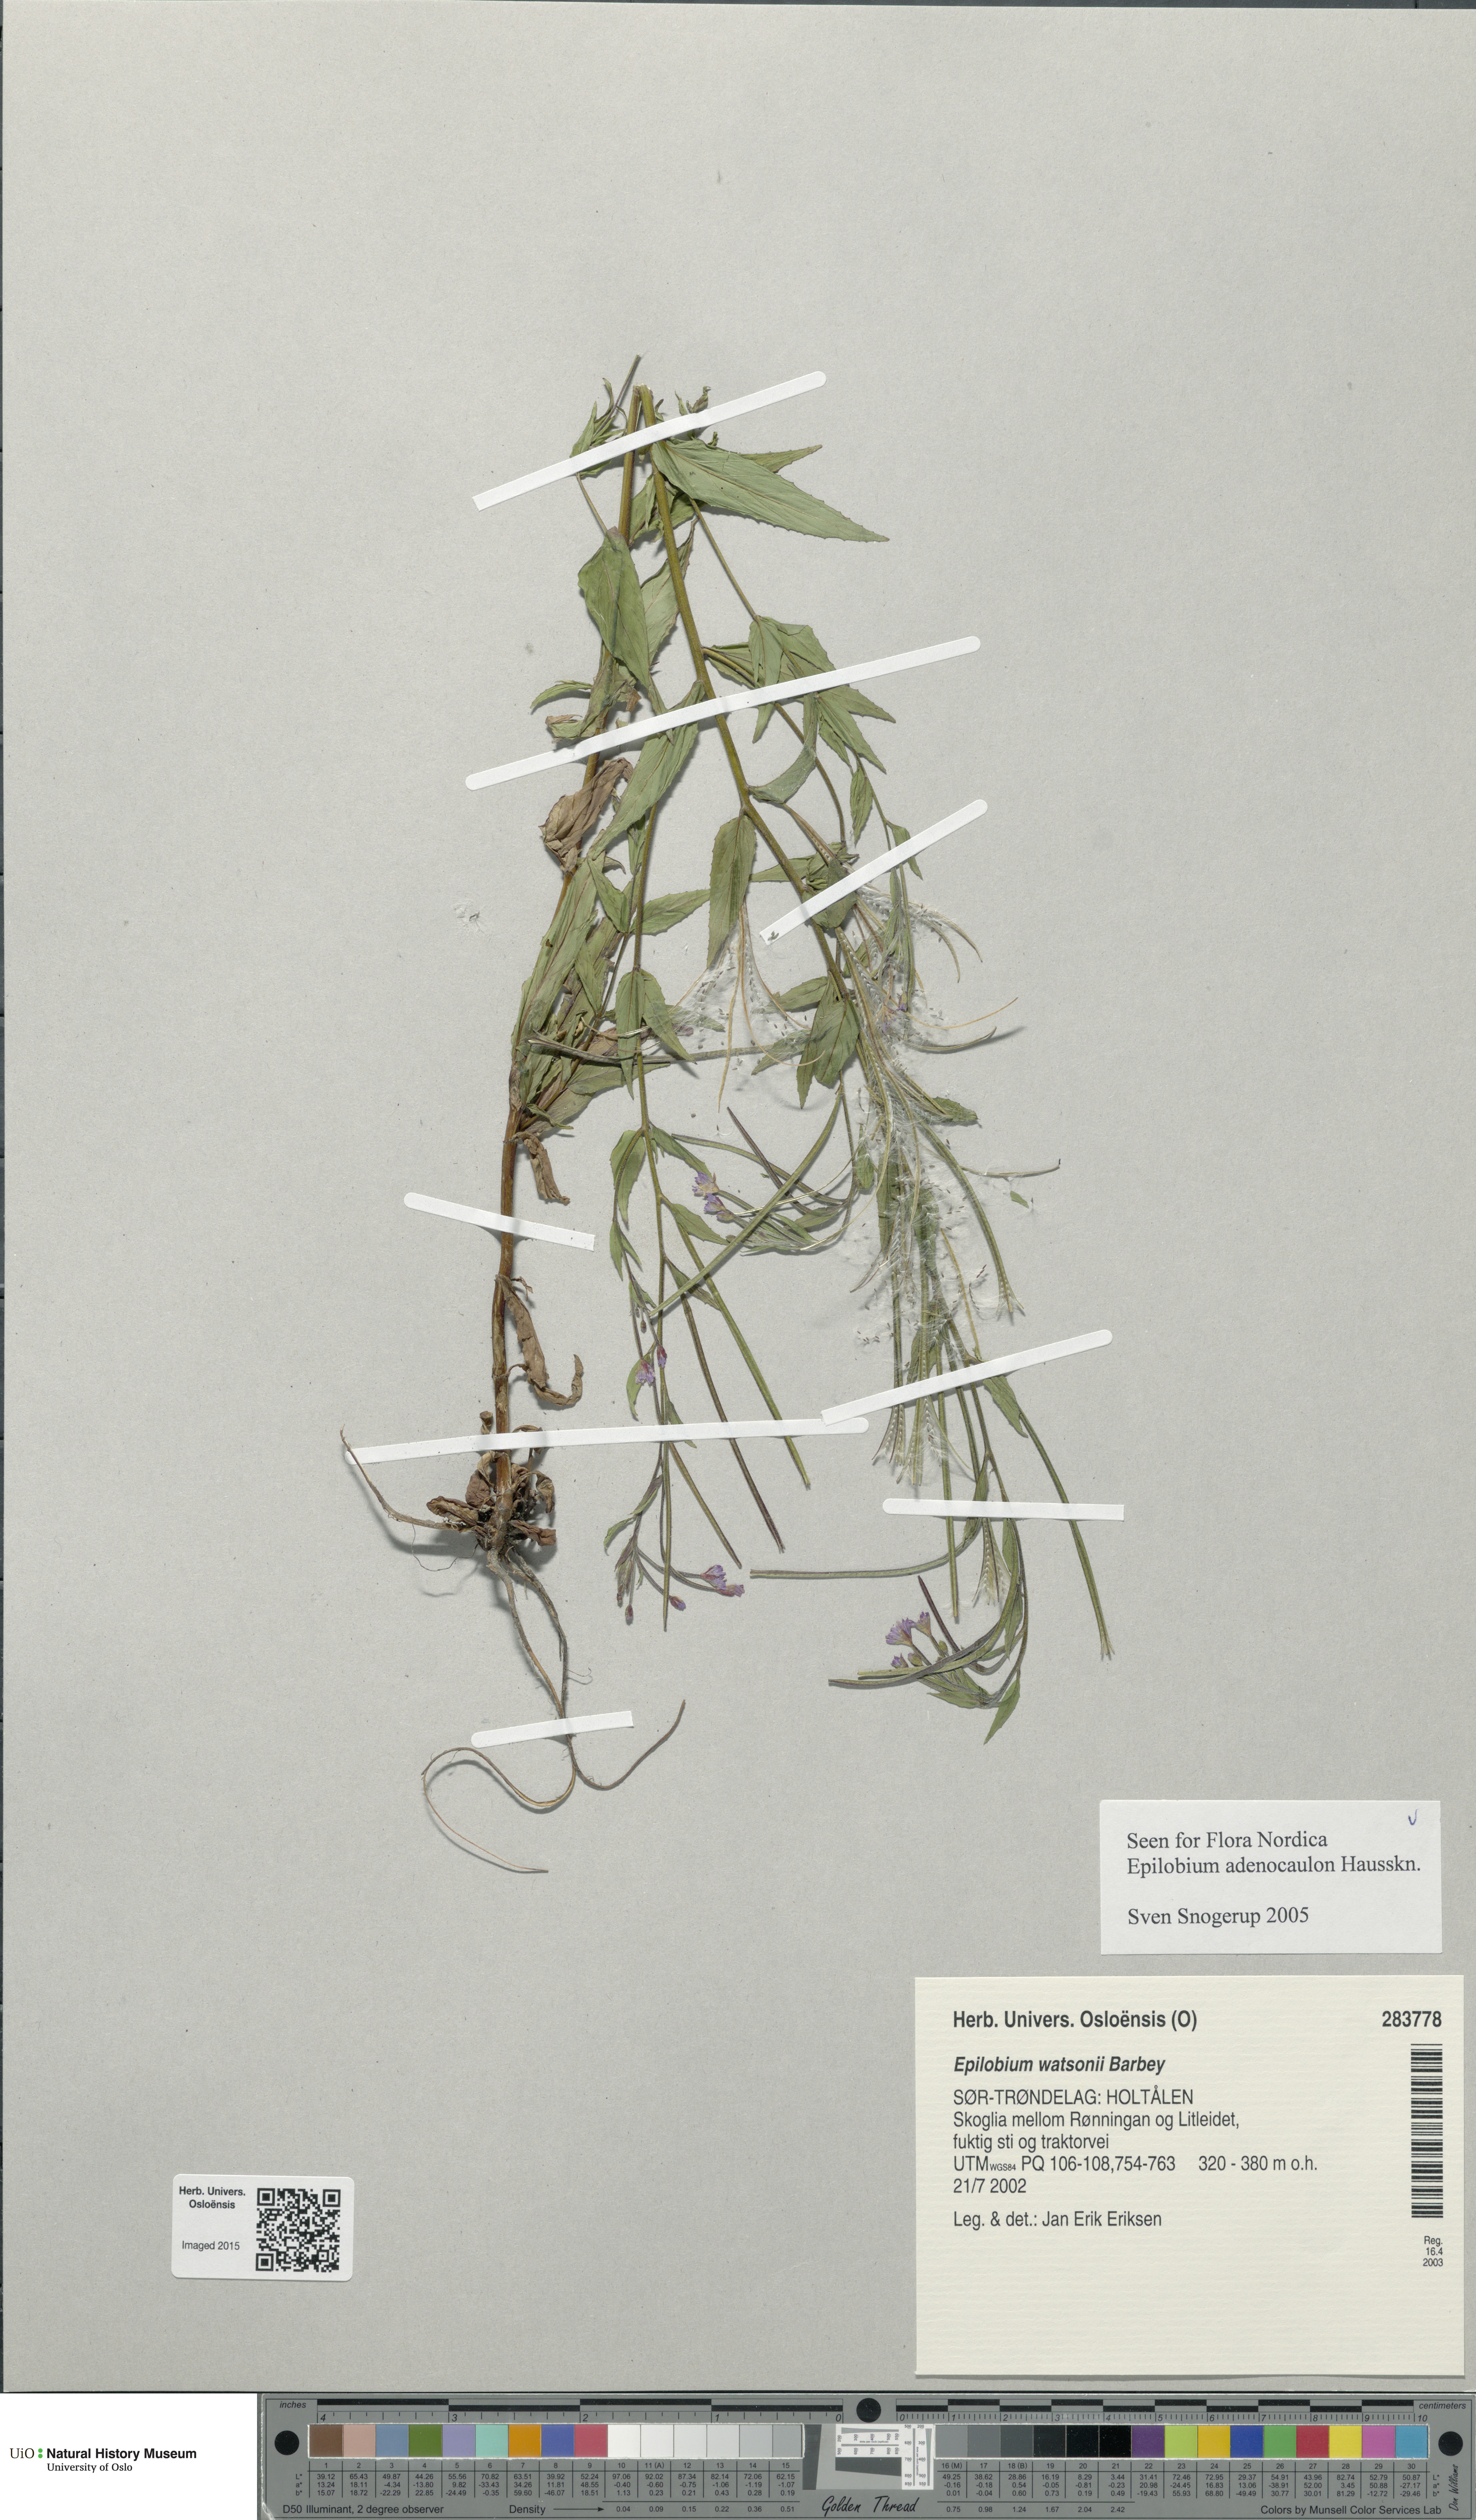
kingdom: Plantae
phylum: Tracheophyta
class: Magnoliopsida
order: Myrtales
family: Onagraceae
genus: Epilobium
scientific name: Epilobium ciliatum
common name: American willowherb
